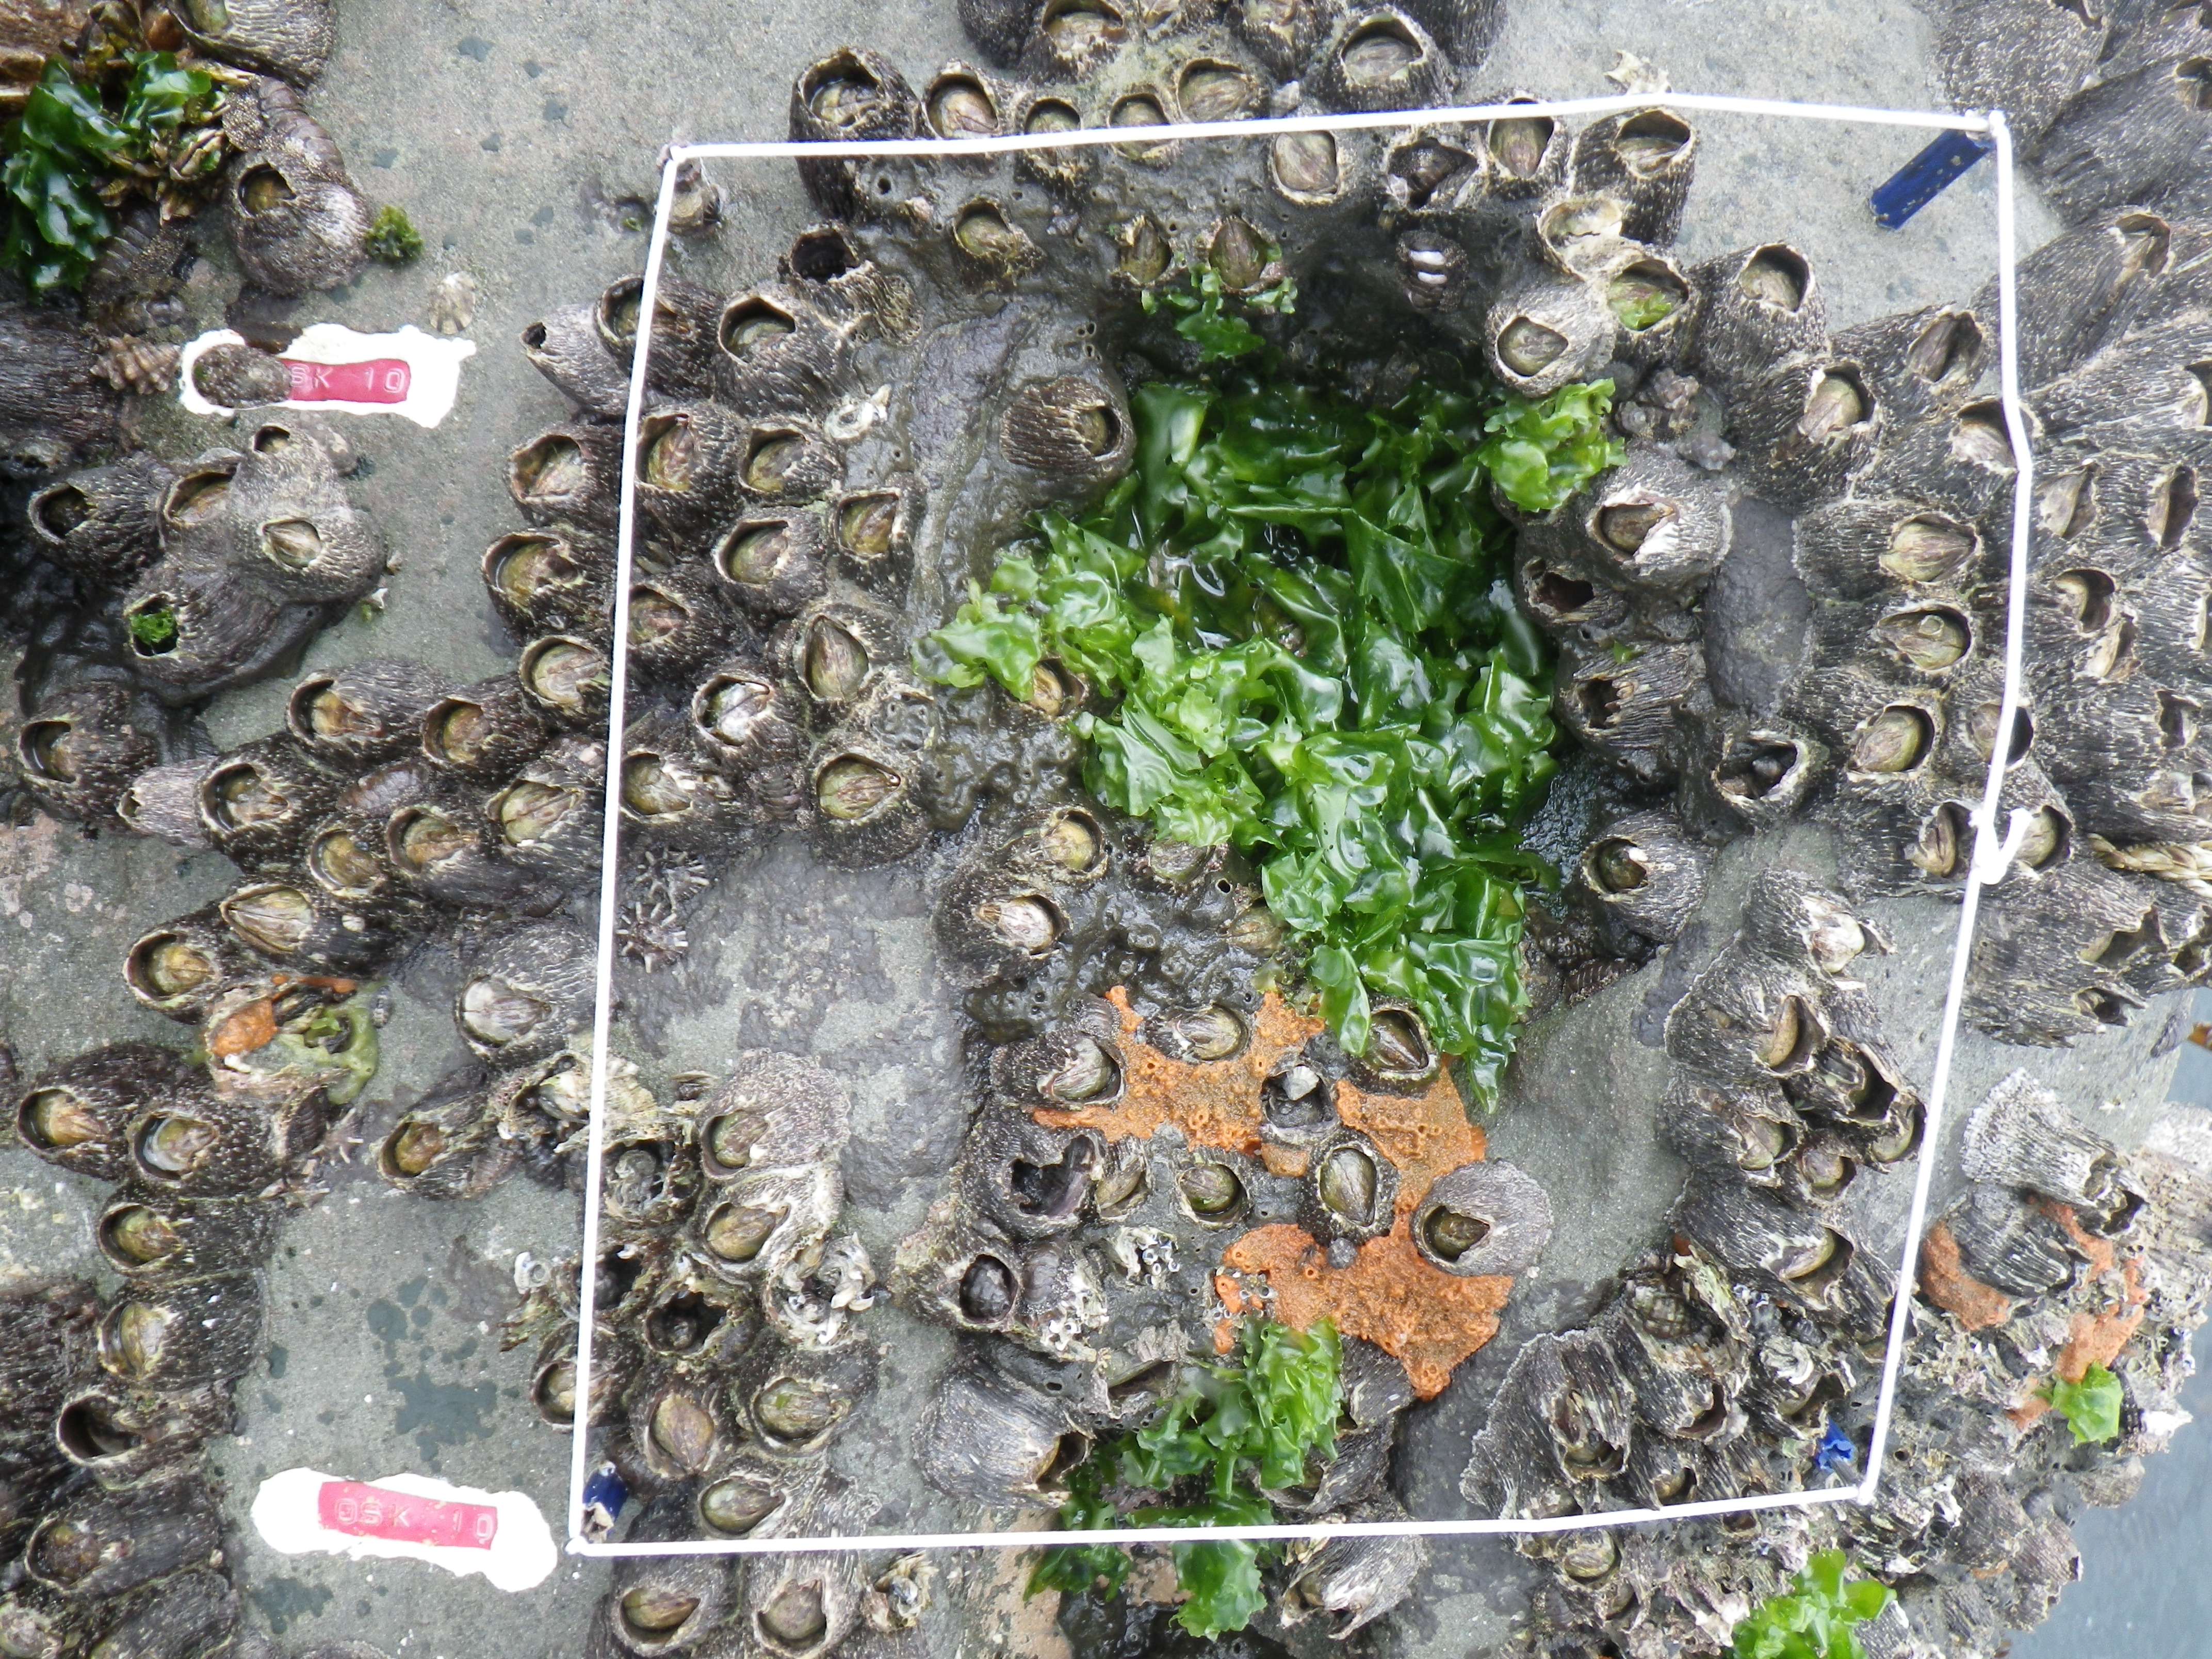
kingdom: Animalia
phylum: Arthropoda
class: Maxillopoda
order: Sessilia
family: Chthamalidae
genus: Chthamalus
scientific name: Chthamalus challengeri
